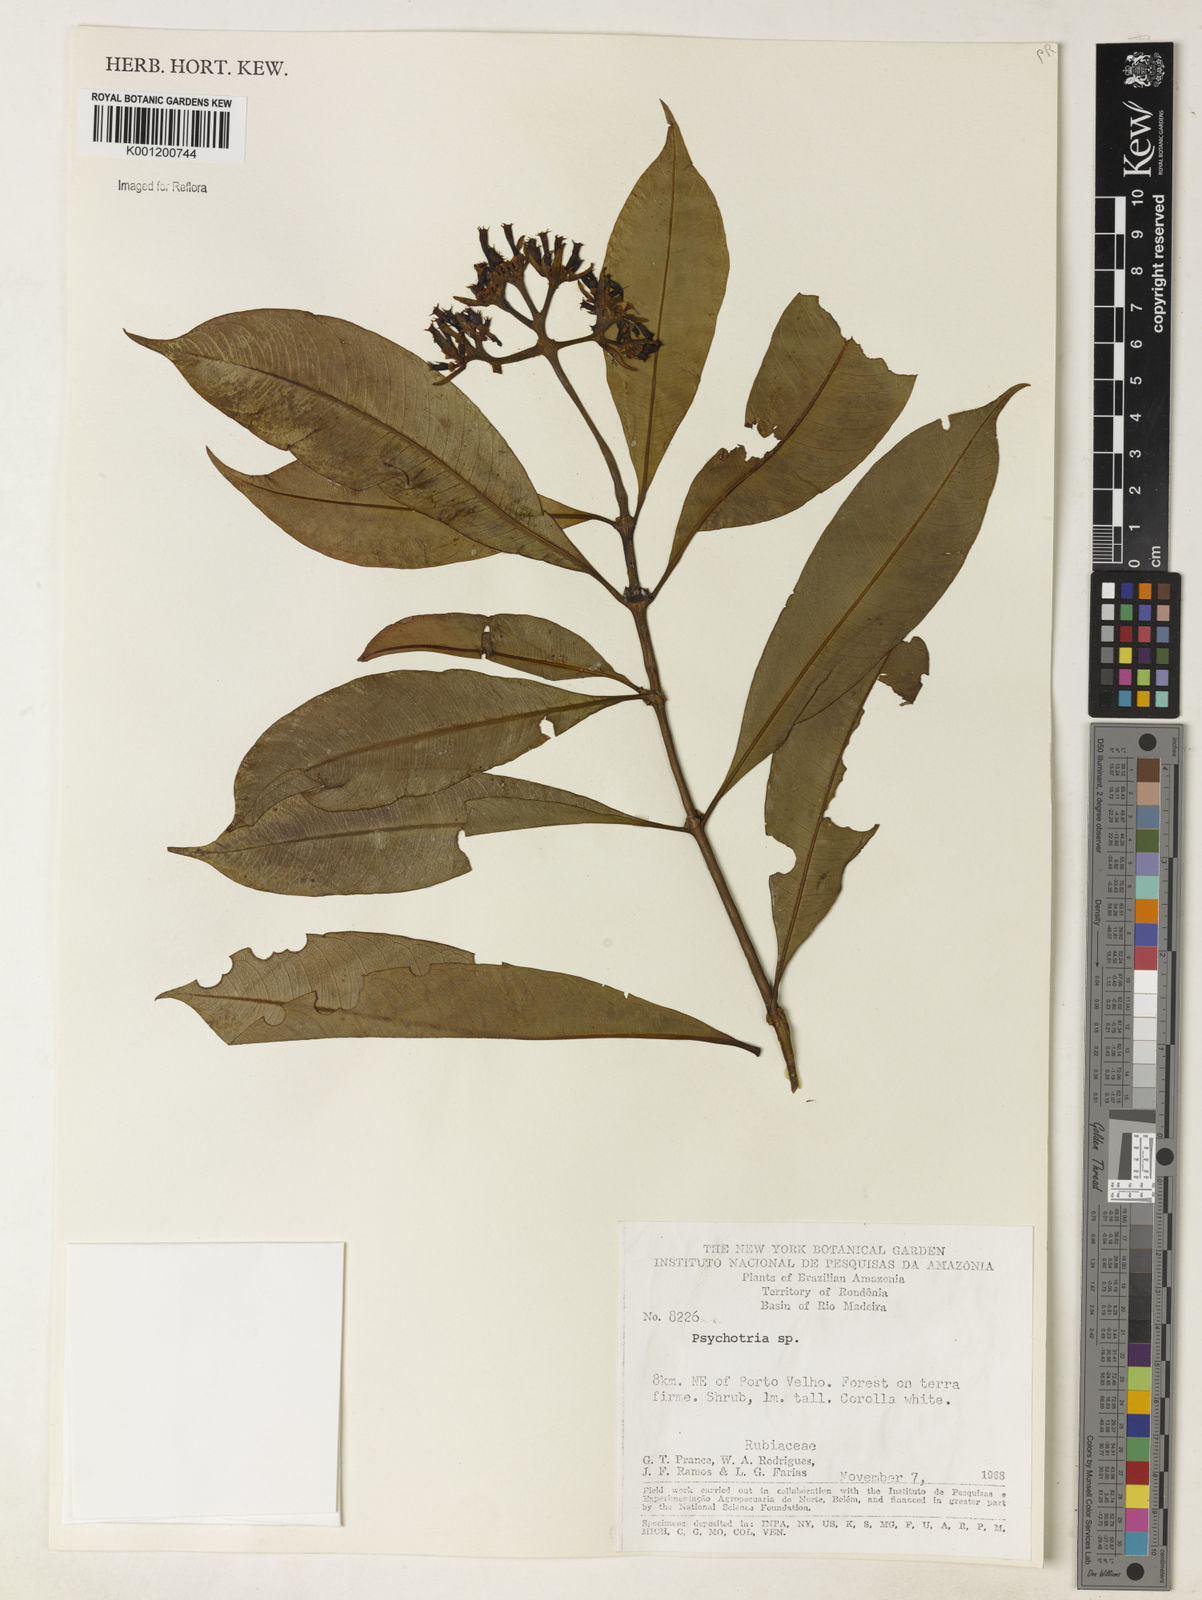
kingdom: Plantae
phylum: Tracheophyta
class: Magnoliopsida
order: Gentianales
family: Rubiaceae
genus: Psychotria
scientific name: Psychotria
